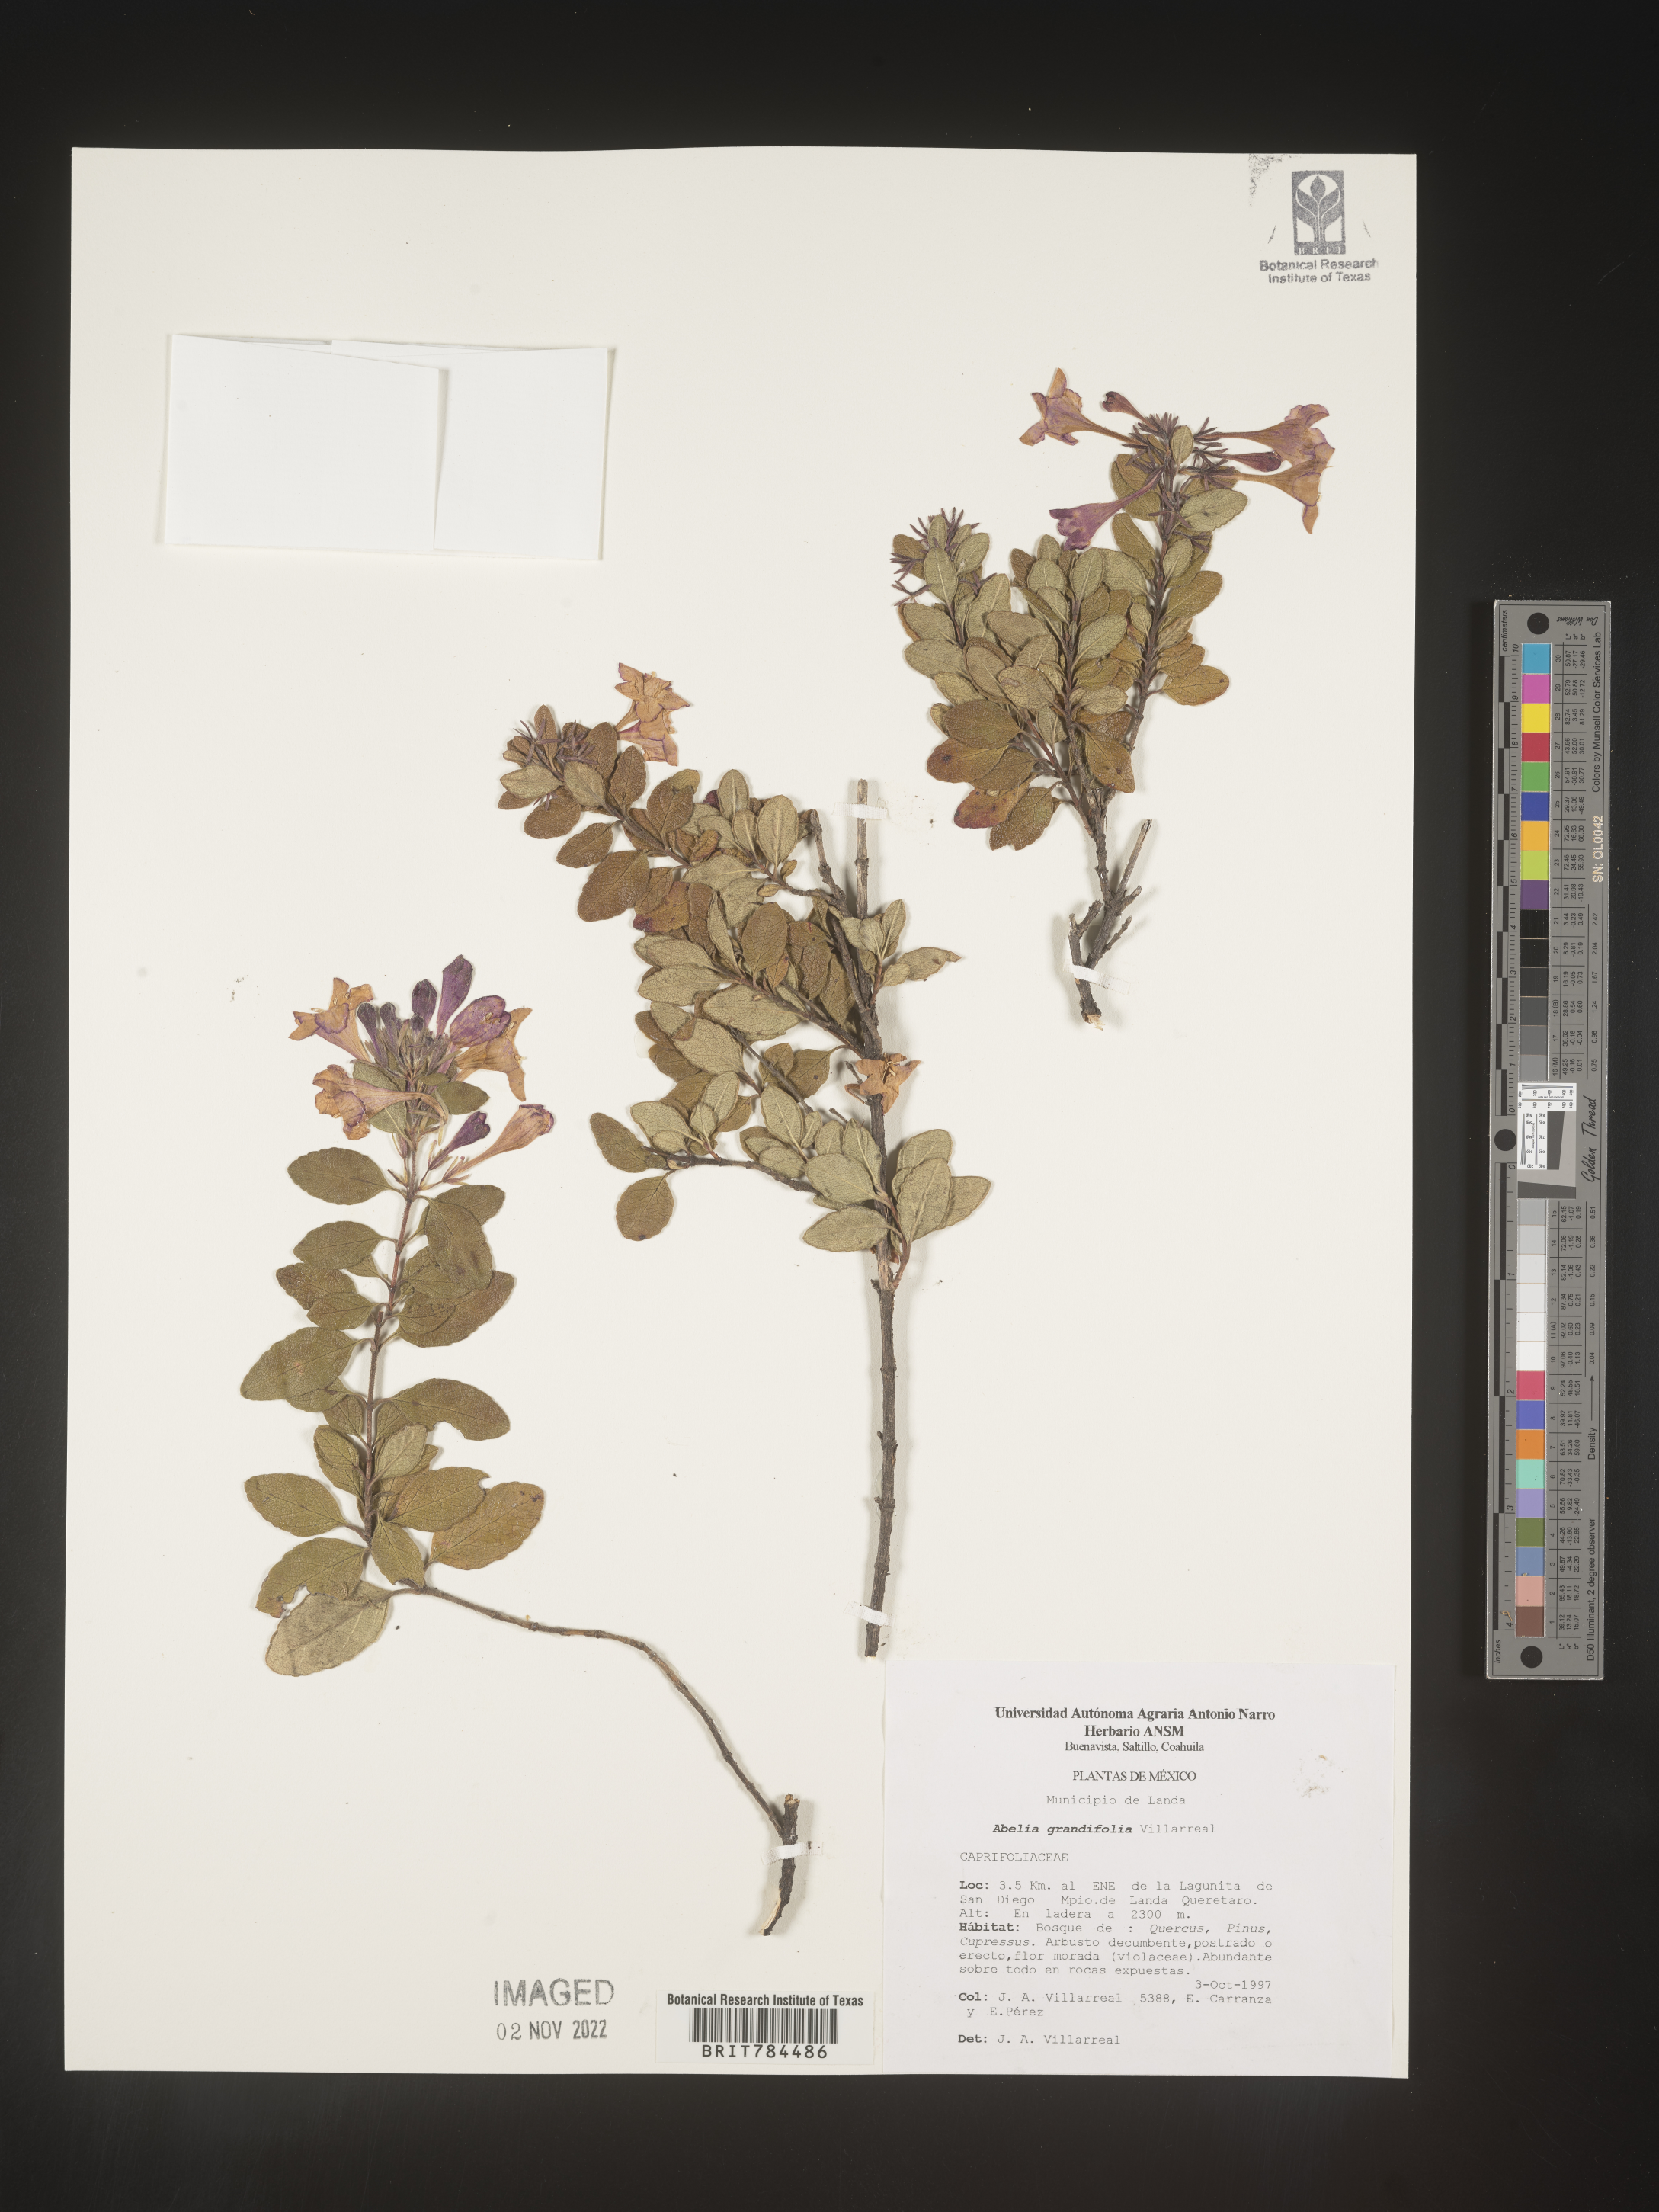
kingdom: Plantae
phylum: Tracheophyta
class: Magnoliopsida
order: Dipsacales
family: Caprifoliaceae
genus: Abelia
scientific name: Abelia
